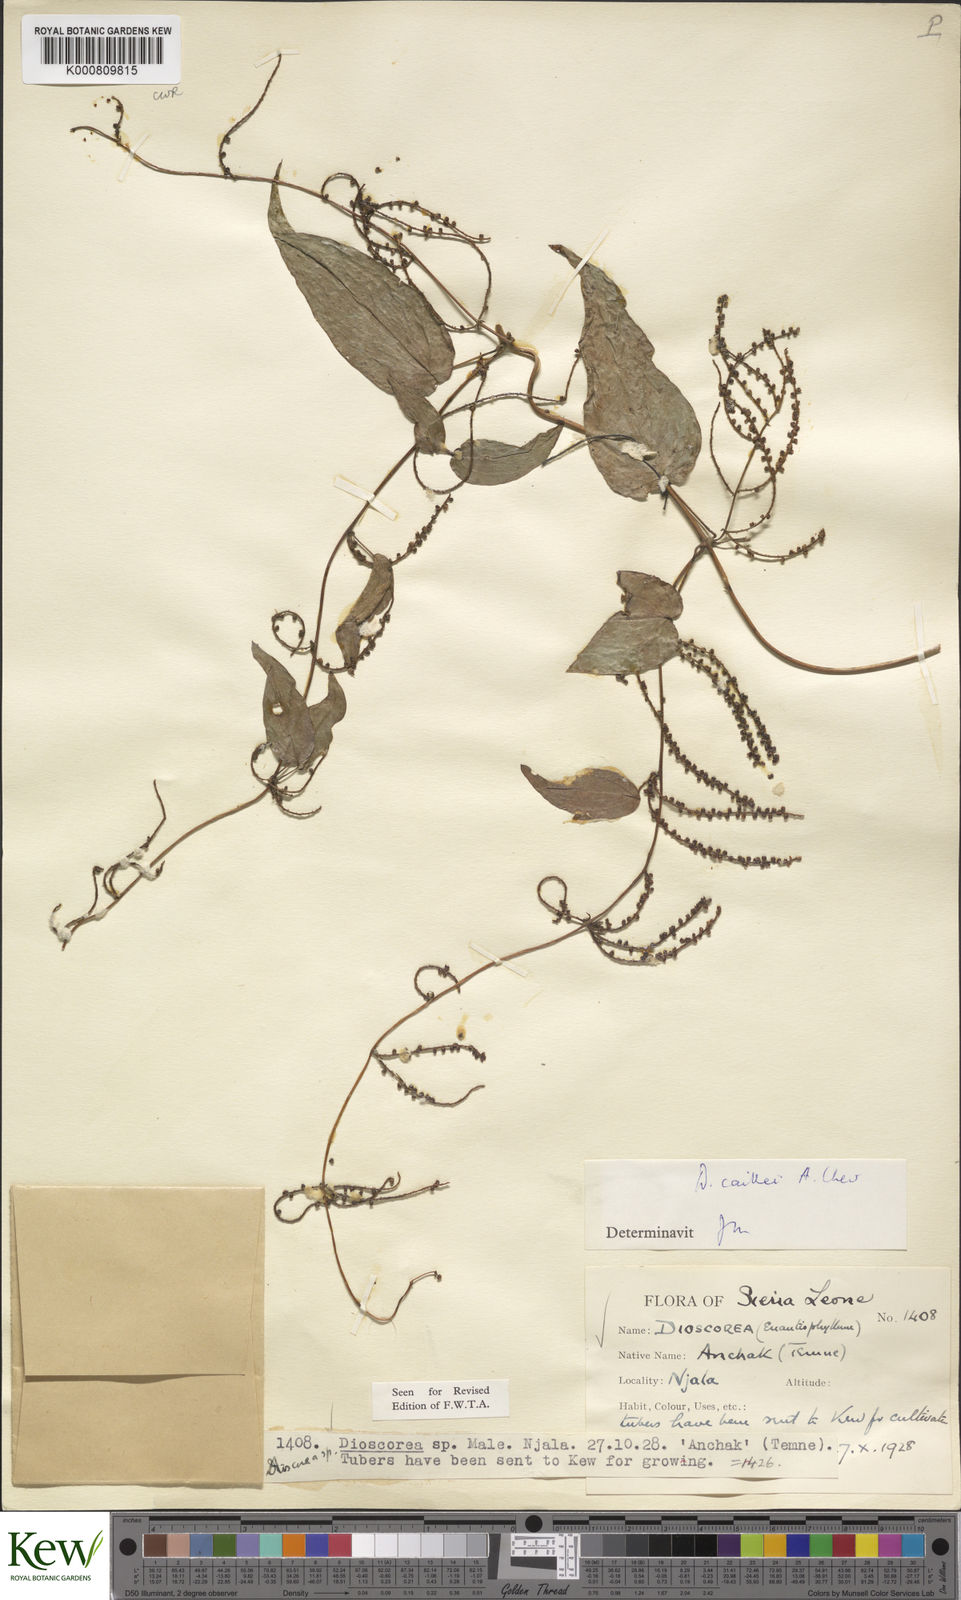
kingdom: Plantae
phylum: Tracheophyta
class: Liliopsida
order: Dioscoreales
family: Dioscoreaceae
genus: Dioscorea
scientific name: Dioscorea togoensis
